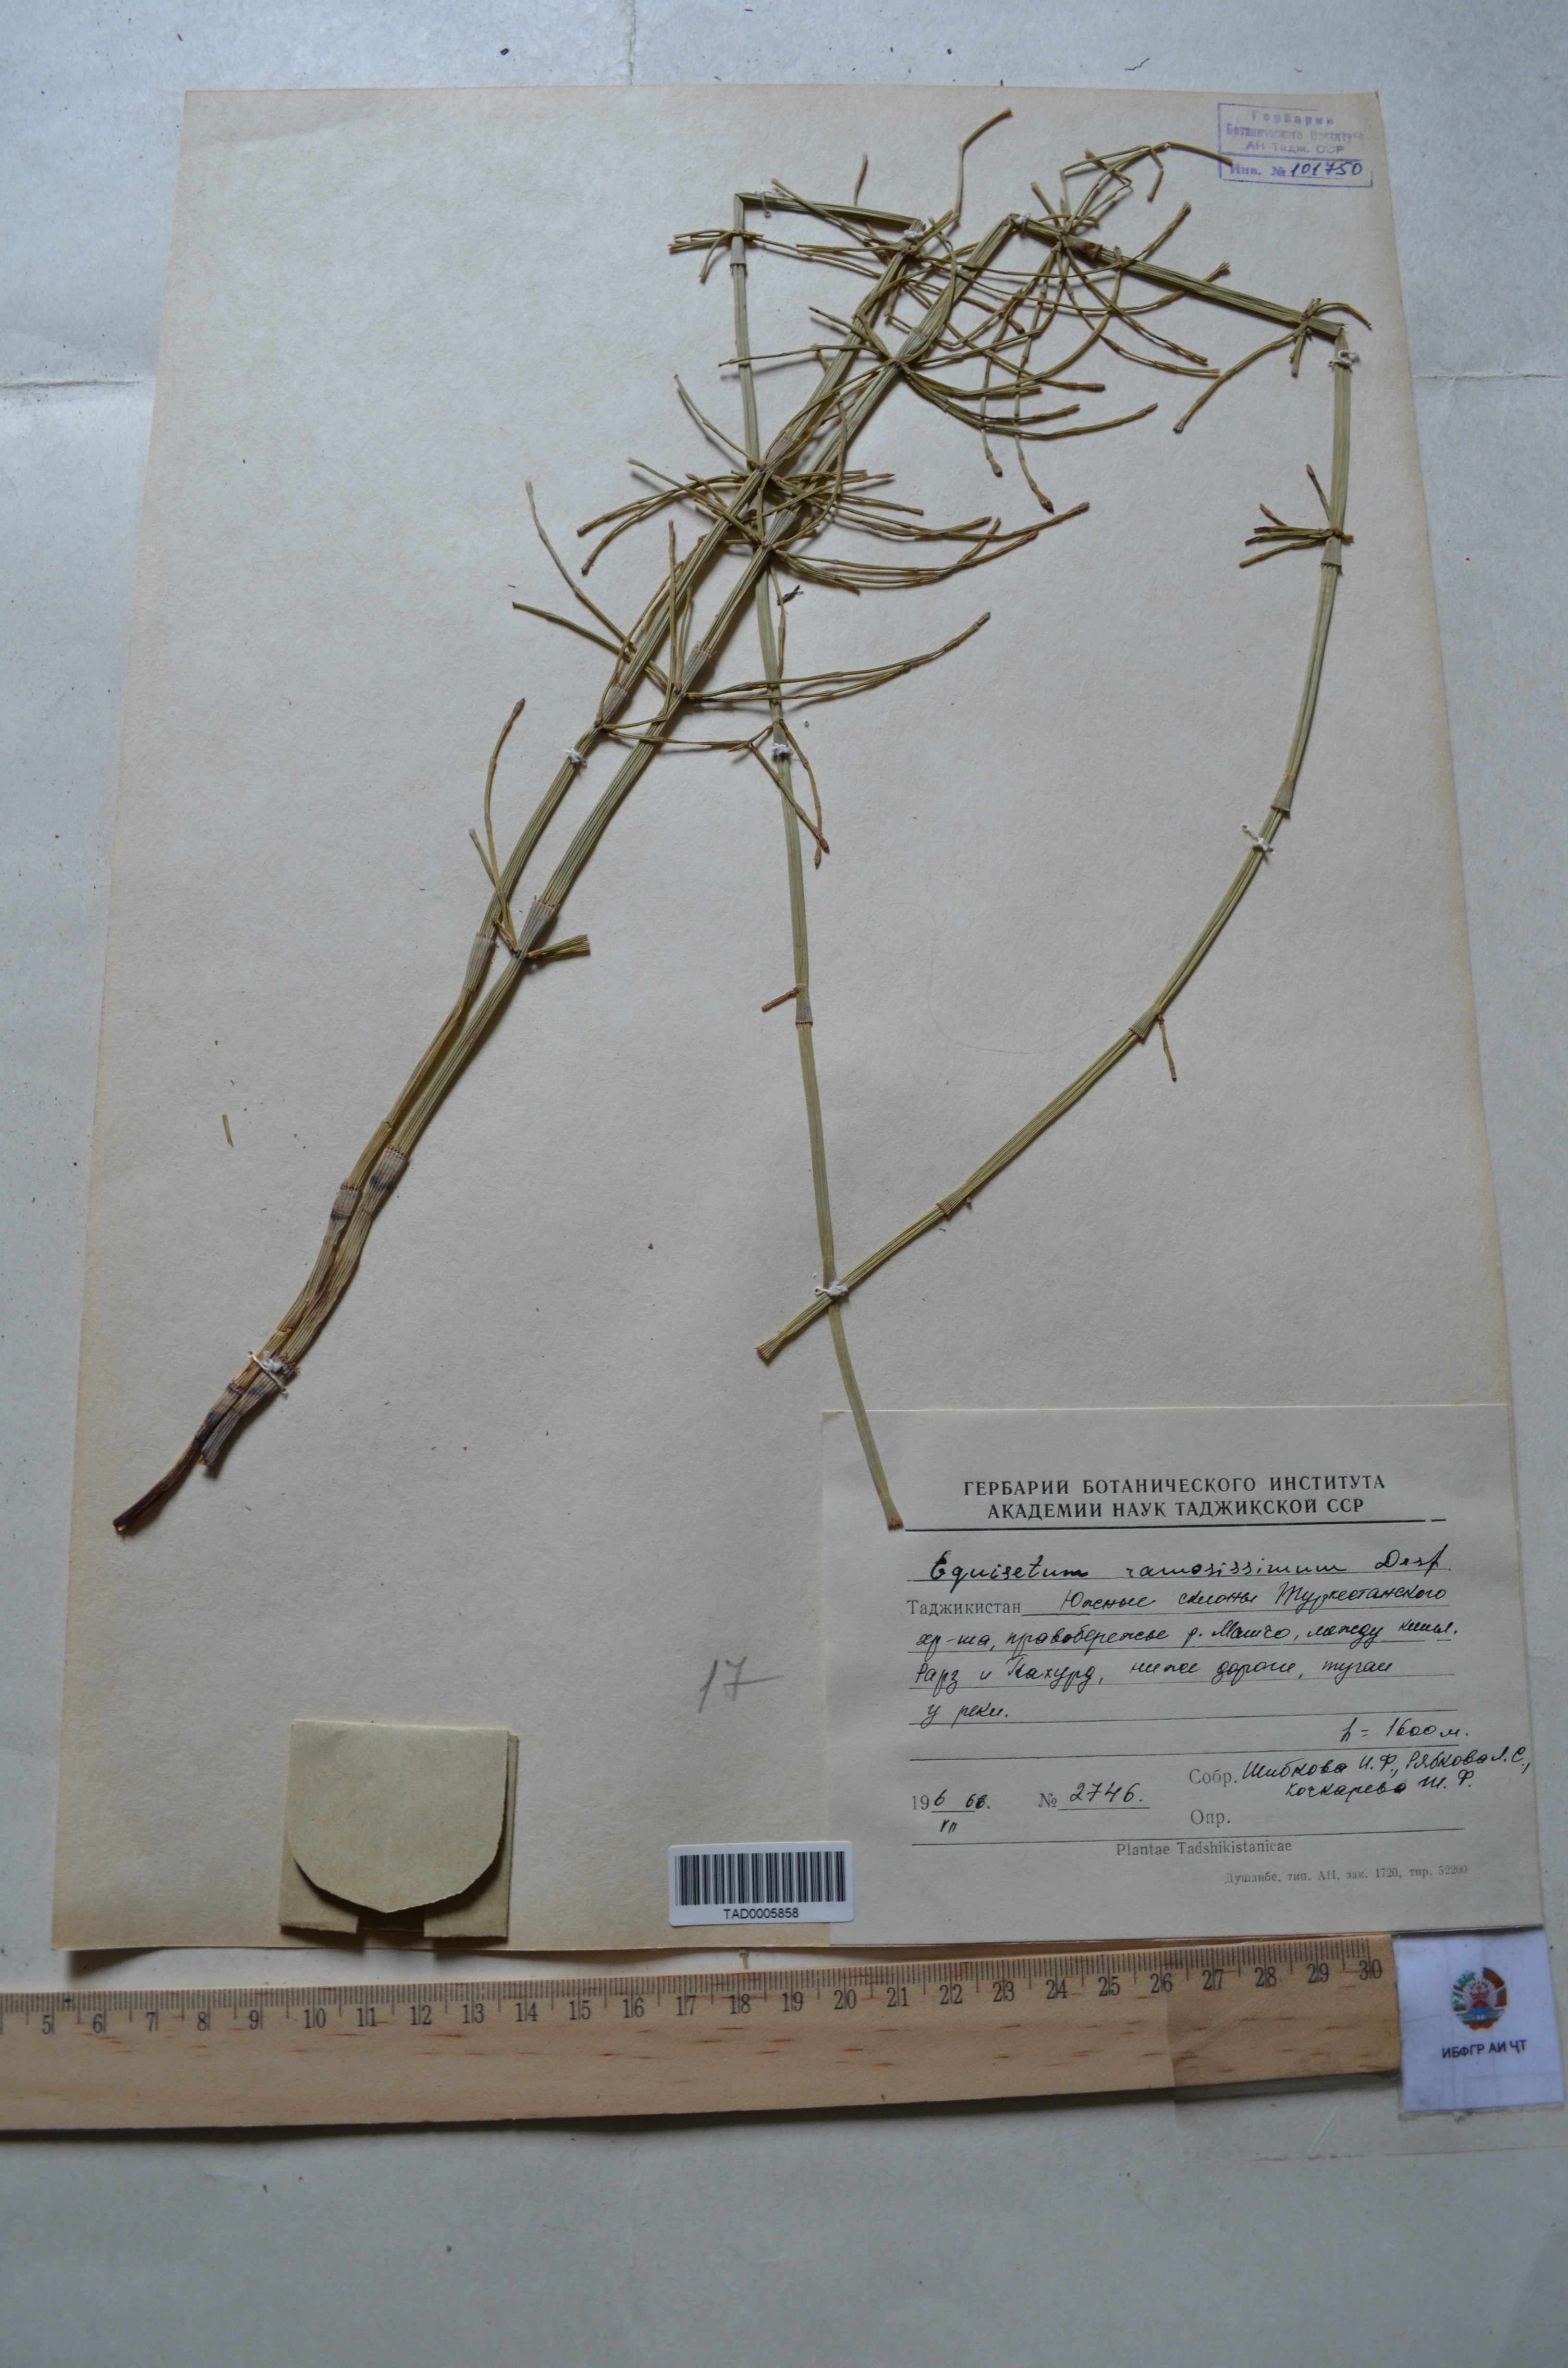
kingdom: Plantae
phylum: Tracheophyta
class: Polypodiopsida
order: Equisetales
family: Equisetaceae
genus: Equisetum
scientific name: Equisetum ramosissimum
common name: Branched horsetail
